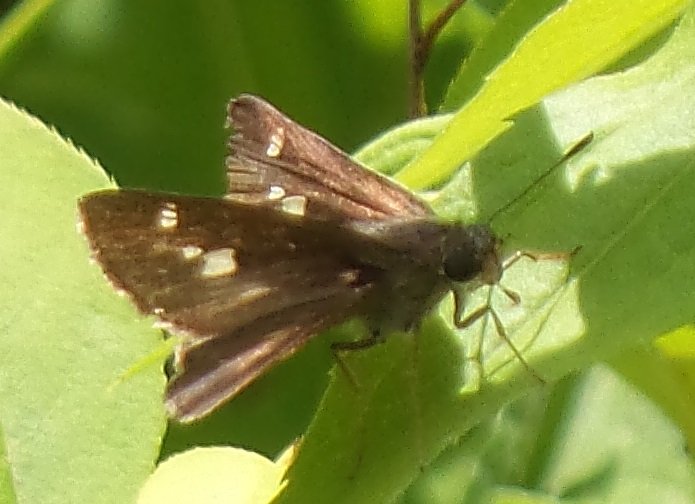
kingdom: Animalia
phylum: Arthropoda
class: Insecta
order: Lepidoptera
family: Hesperiidae
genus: Vernia
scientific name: Vernia verna
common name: Little Glassywing
